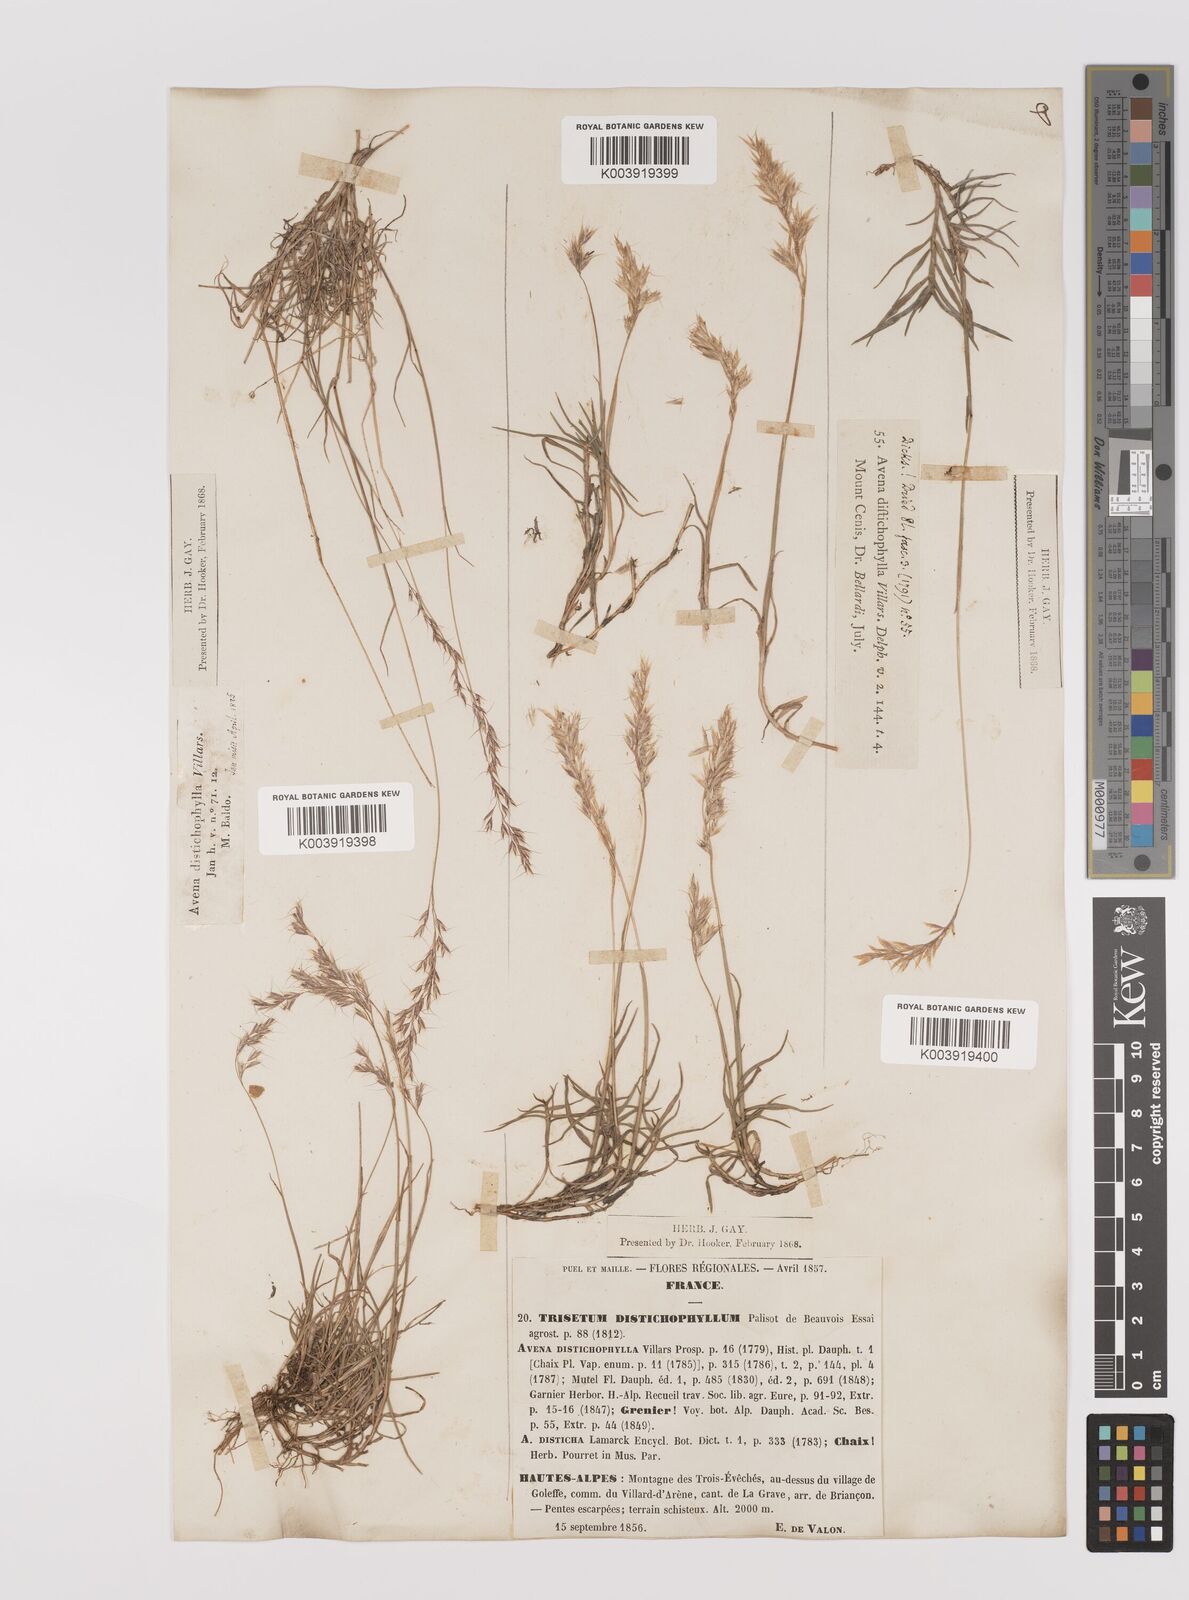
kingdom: Plantae
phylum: Tracheophyta
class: Liliopsida
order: Poales
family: Poaceae
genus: Acrospelion
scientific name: Acrospelion distichophyllum
